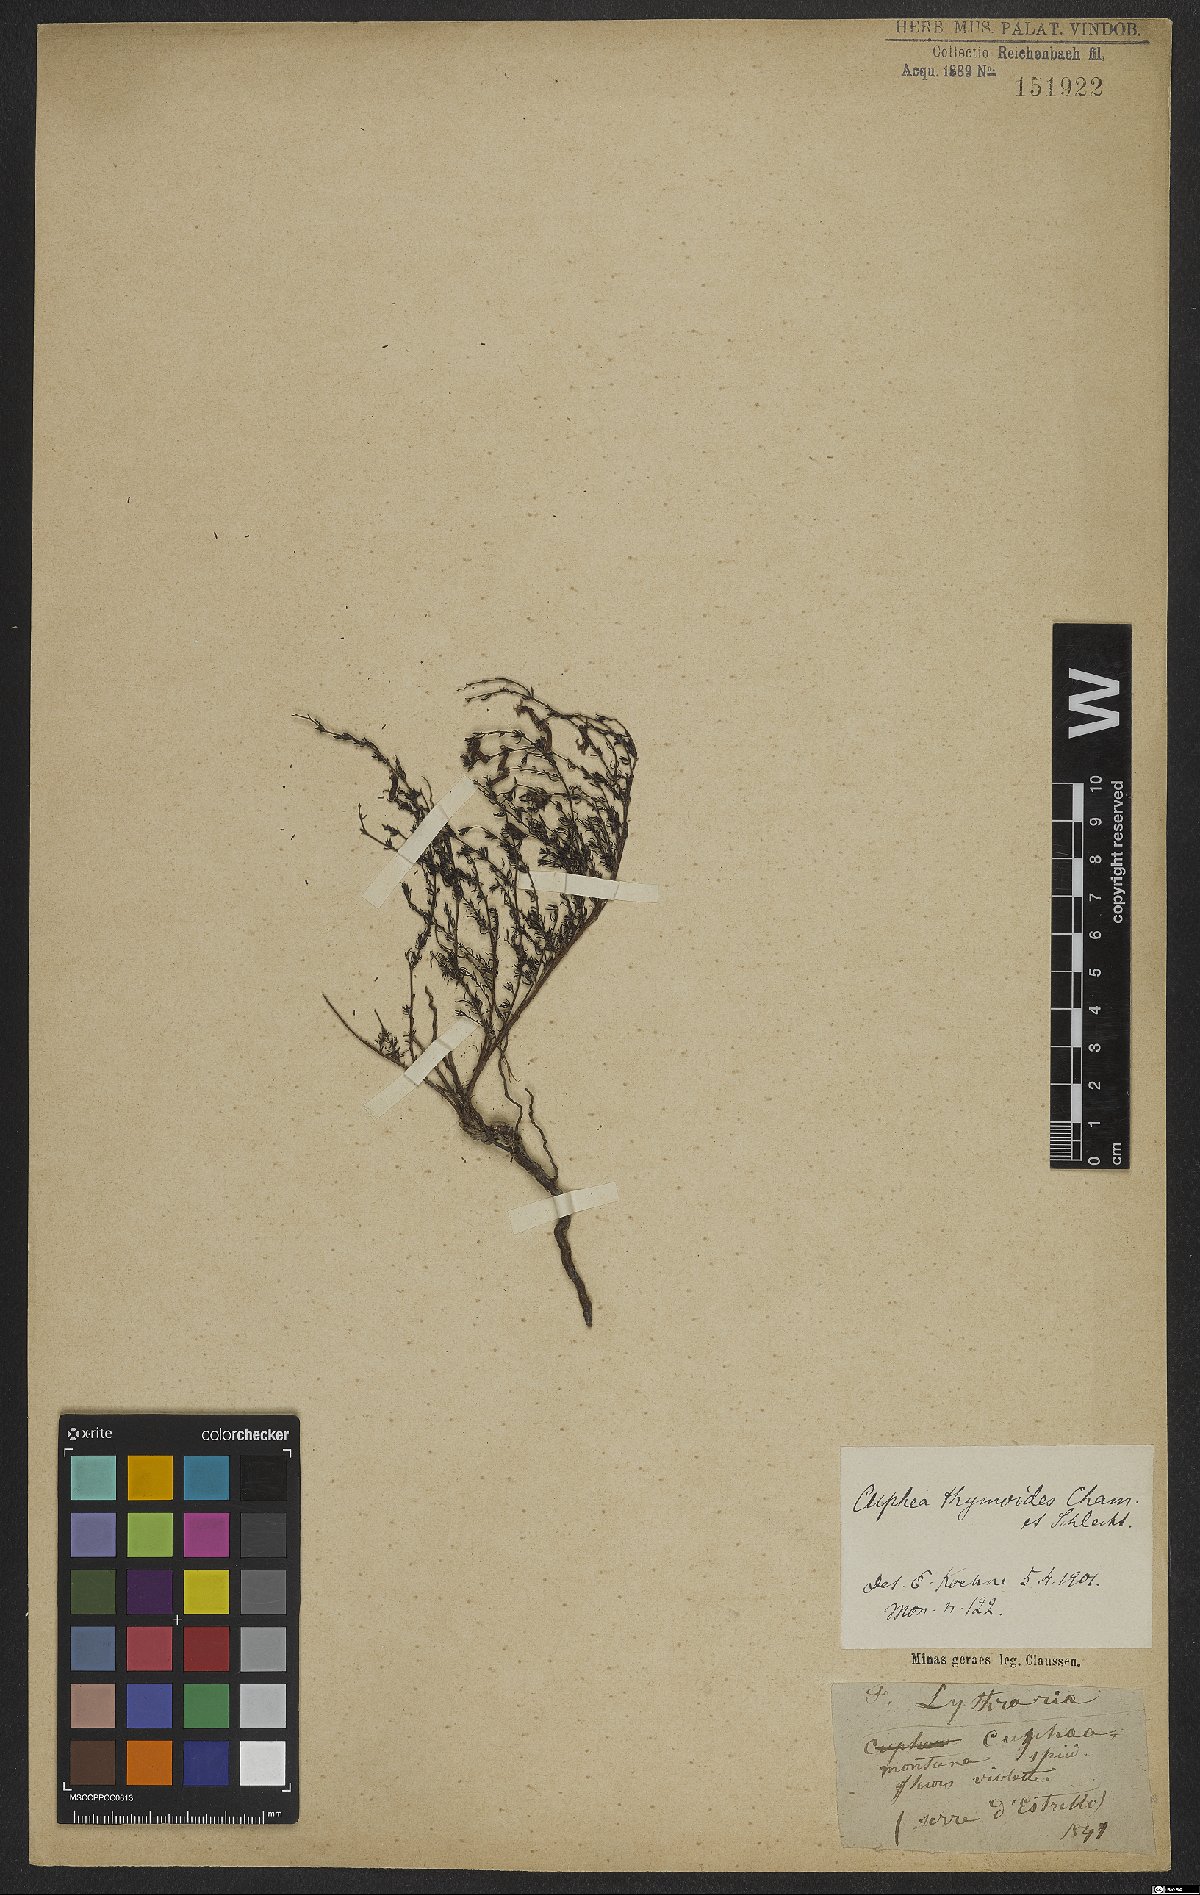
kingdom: Plantae
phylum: Tracheophyta
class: Magnoliopsida
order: Myrtales
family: Lythraceae
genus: Cuphea
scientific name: Cuphea thymoides
